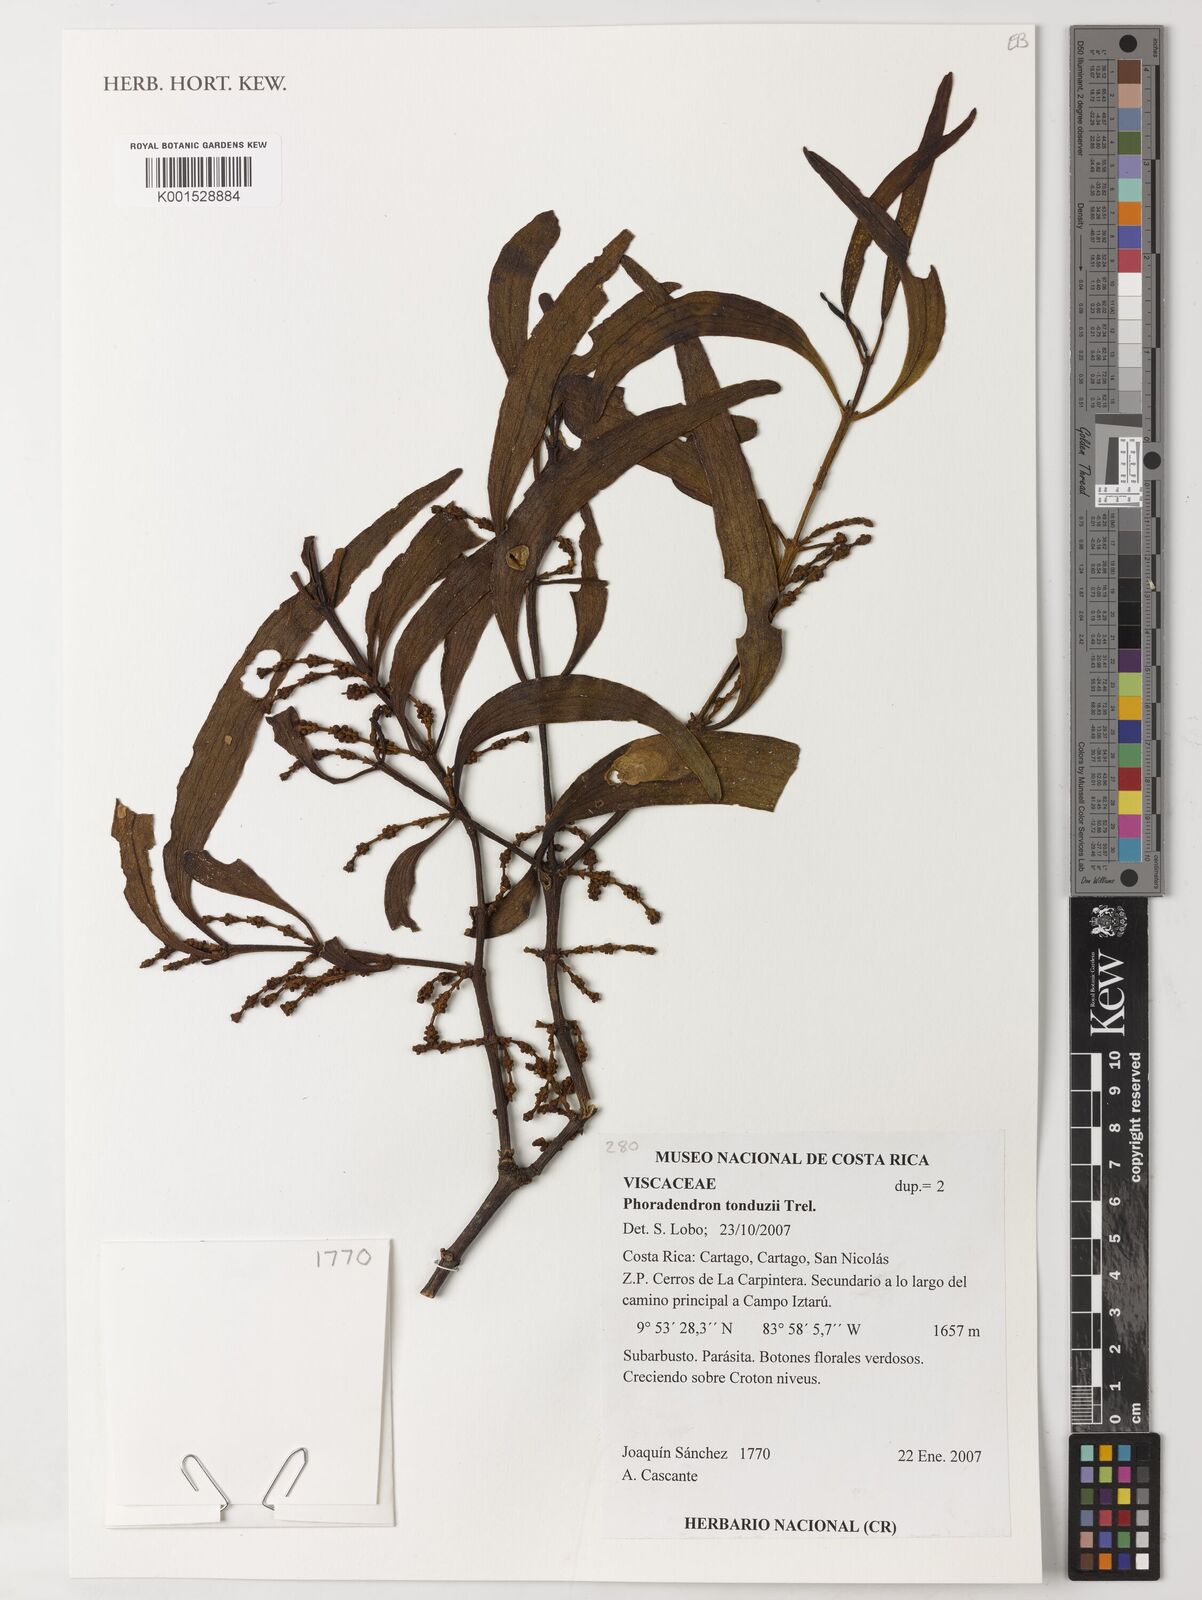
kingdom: Plantae
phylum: Tracheophyta
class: Magnoliopsida
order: Santalales
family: Viscaceae
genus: Phoradendron
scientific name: Phoradendron tonduzii
